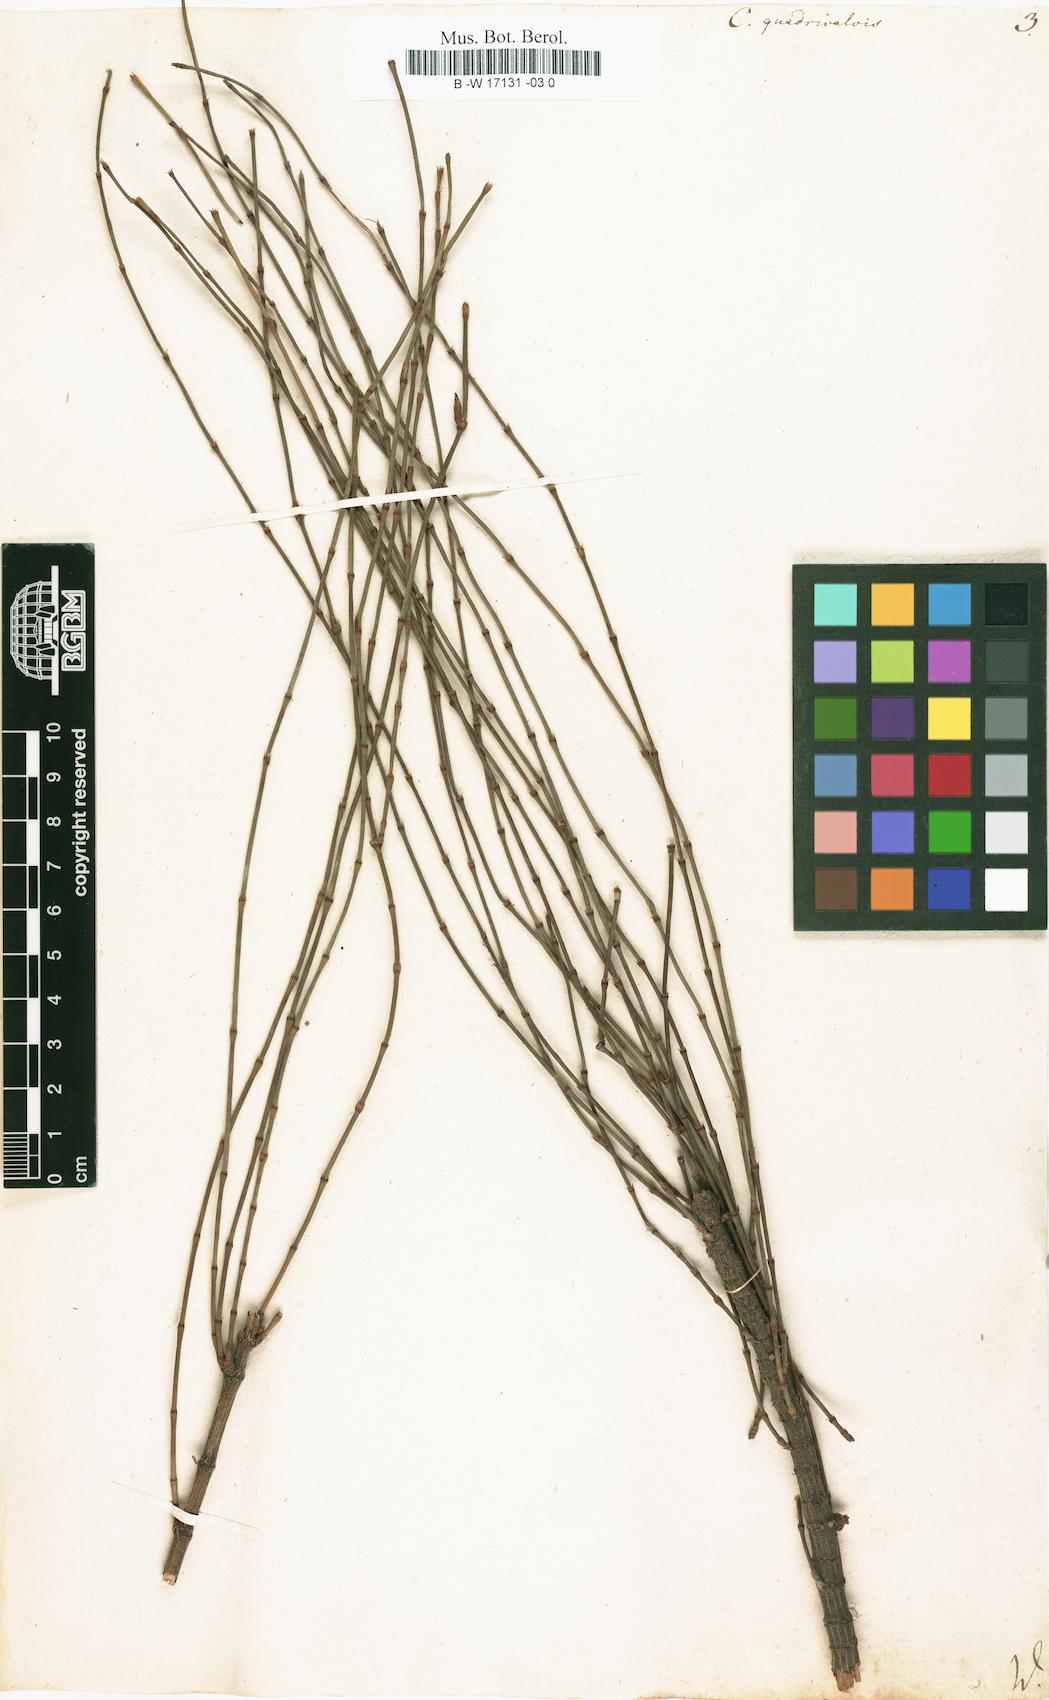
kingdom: Plantae
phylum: Tracheophyta
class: Magnoliopsida
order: Fagales
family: Casuarinaceae
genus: Allocasuarina
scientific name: Allocasuarina verticillata
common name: Drooping she-oak
